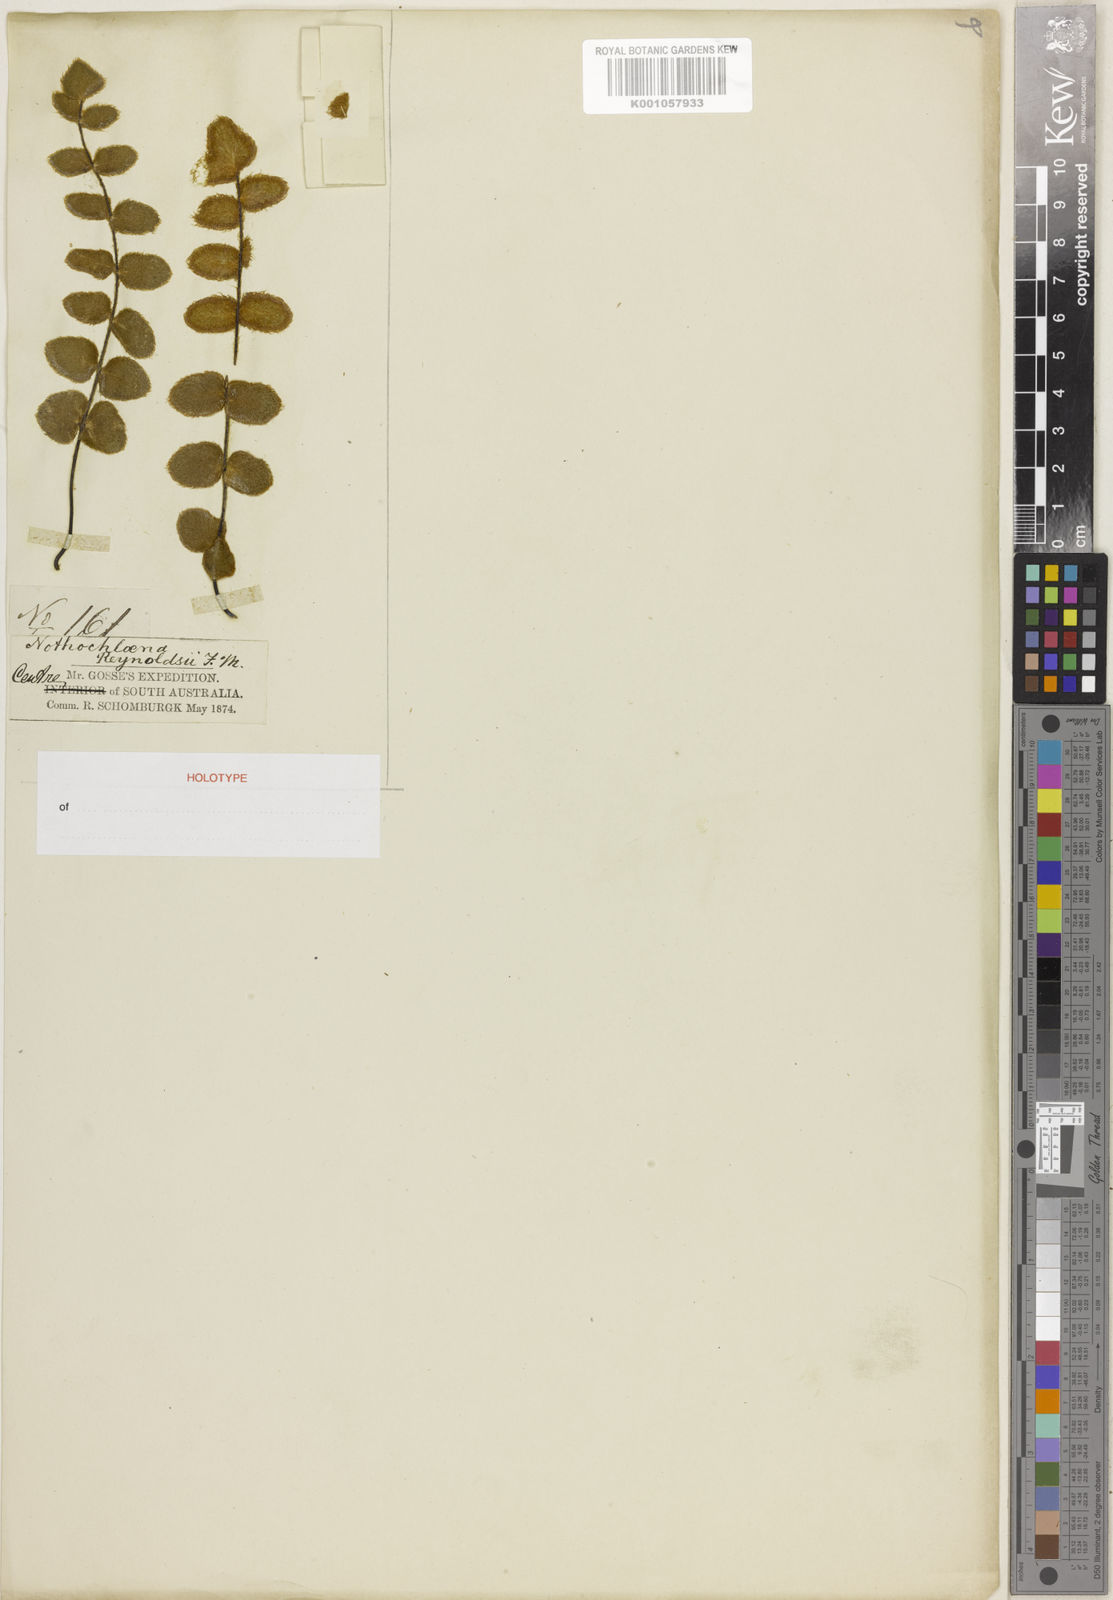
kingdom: Plantae
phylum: Tracheophyta
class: Polypodiopsida
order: Polypodiales
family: Pteridaceae
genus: Pellaea
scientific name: Pellaea reynoldsii
